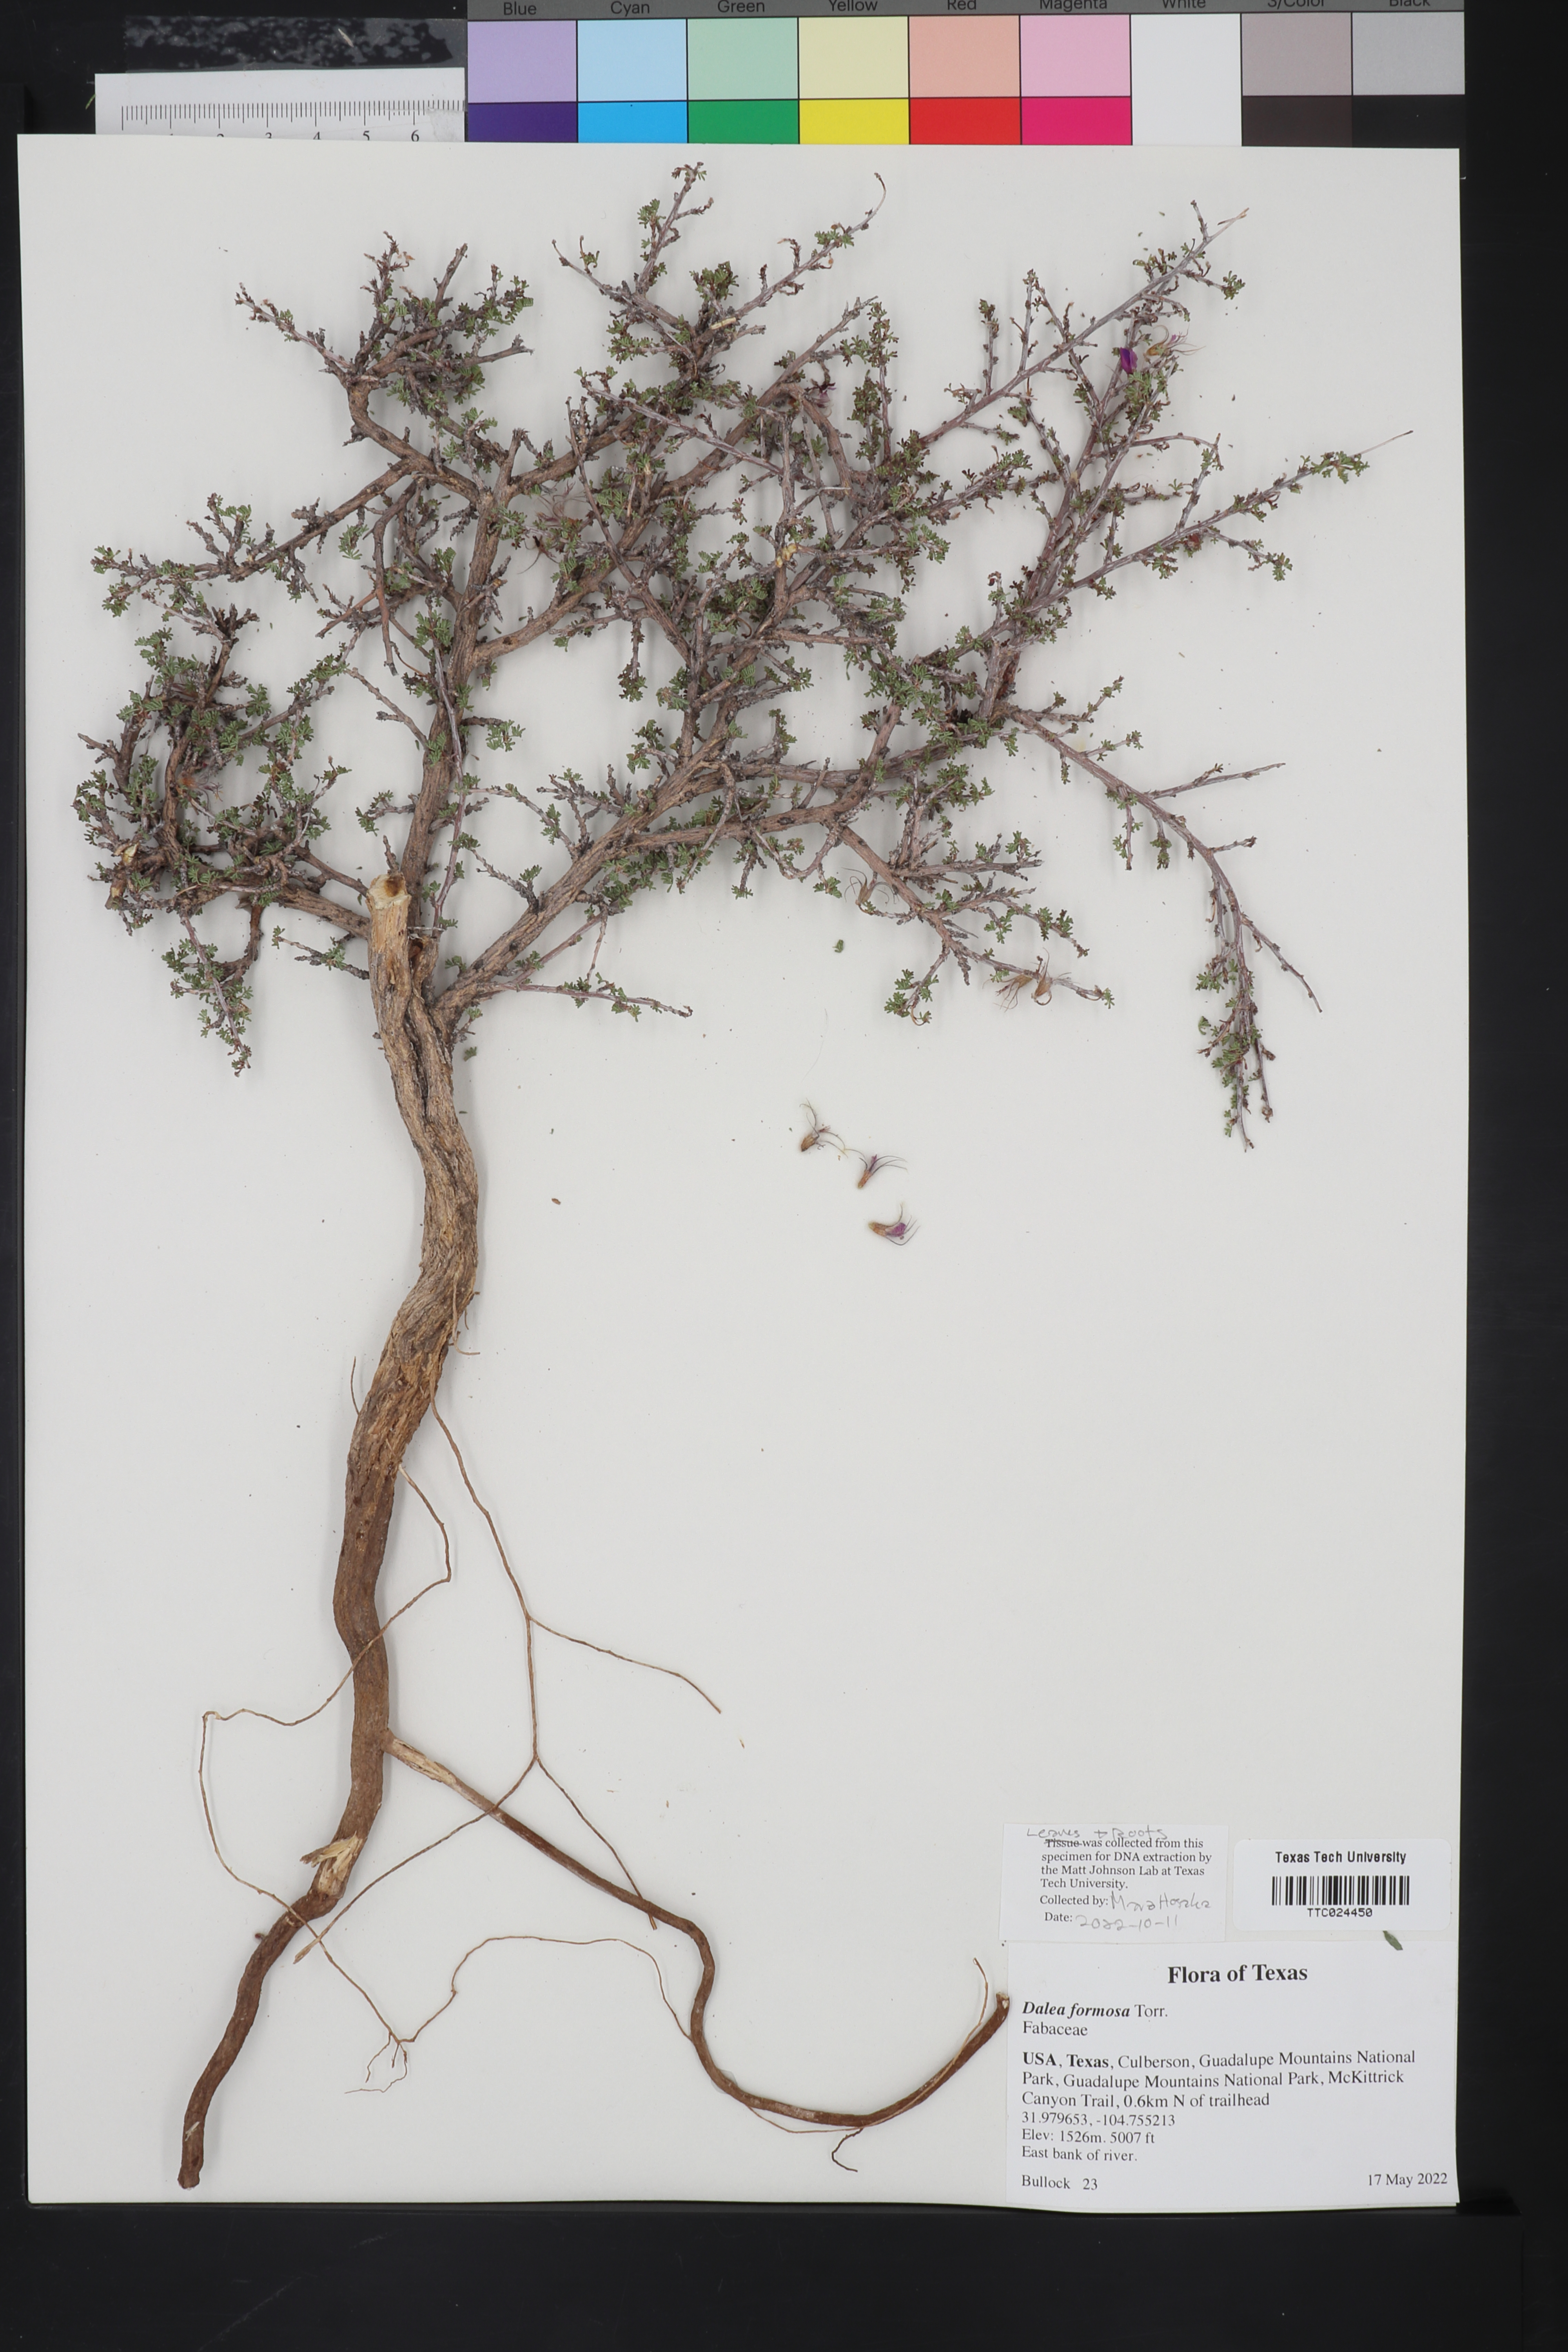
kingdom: Plantae
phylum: Tracheophyta
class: Magnoliopsida
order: Fabales
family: Fabaceae
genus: Dalea
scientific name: Dalea formosa
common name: Feather-plume dalea
